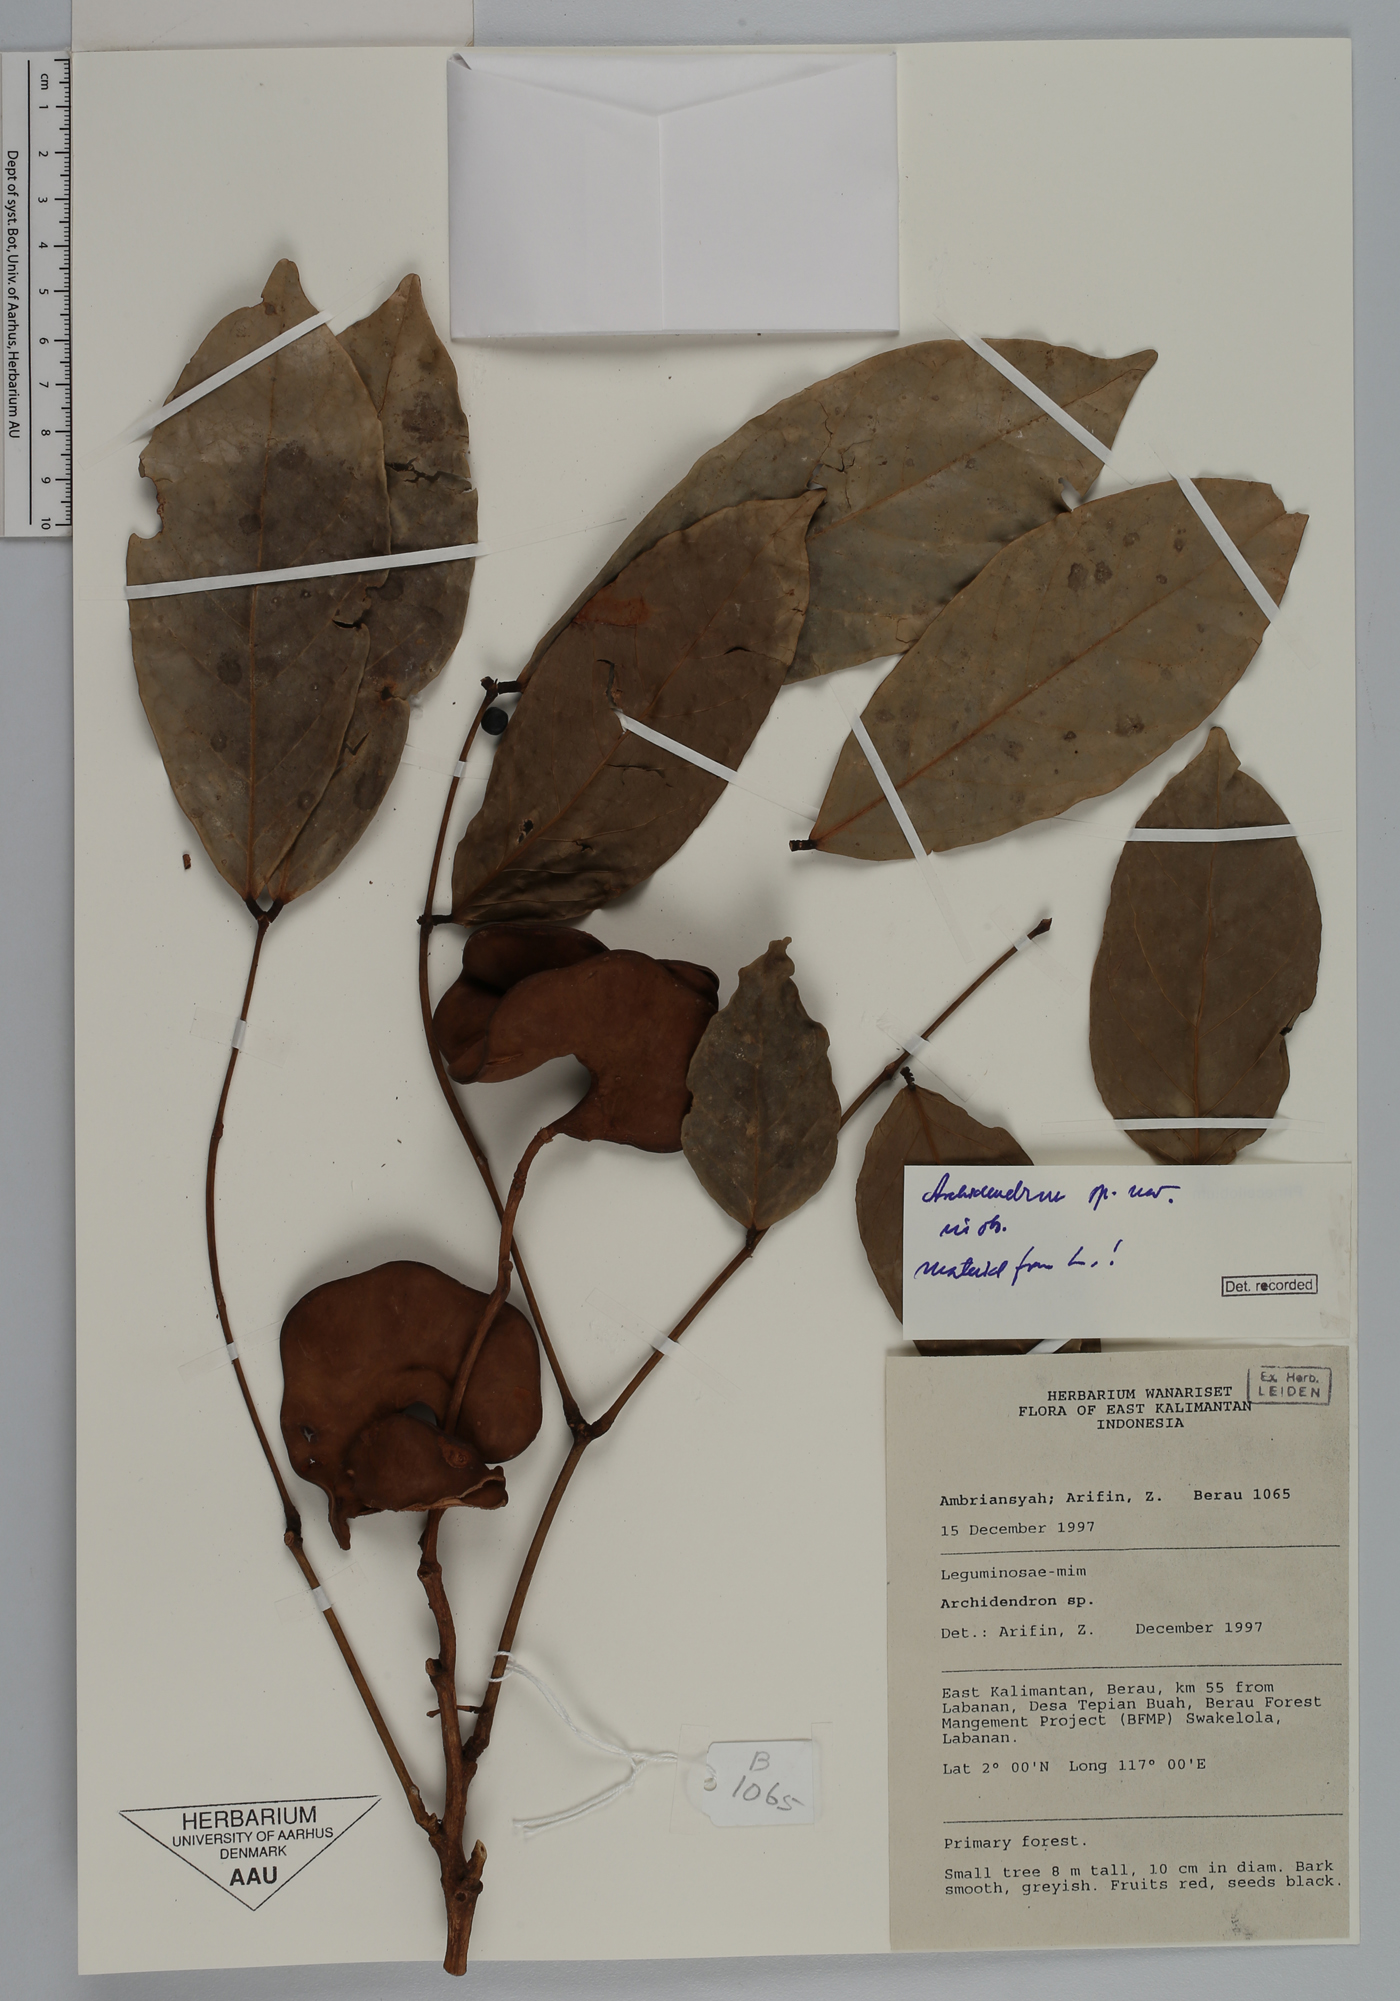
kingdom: Plantae
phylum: Tracheophyta
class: Magnoliopsida
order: Fabales
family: Fabaceae
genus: Archidendron
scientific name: Archidendron
